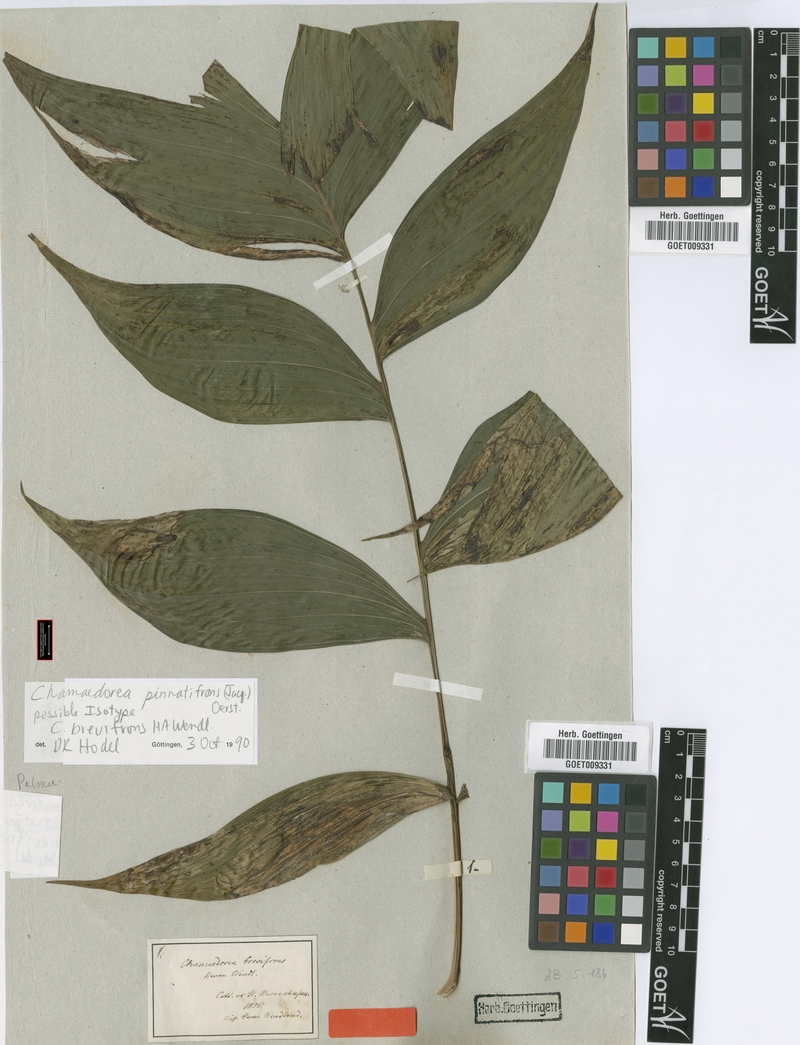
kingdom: Plantae
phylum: Tracheophyta
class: Liliopsida
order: Arecales
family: Arecaceae
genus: Chamaedorea
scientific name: Chamaedorea pinnatifrons
